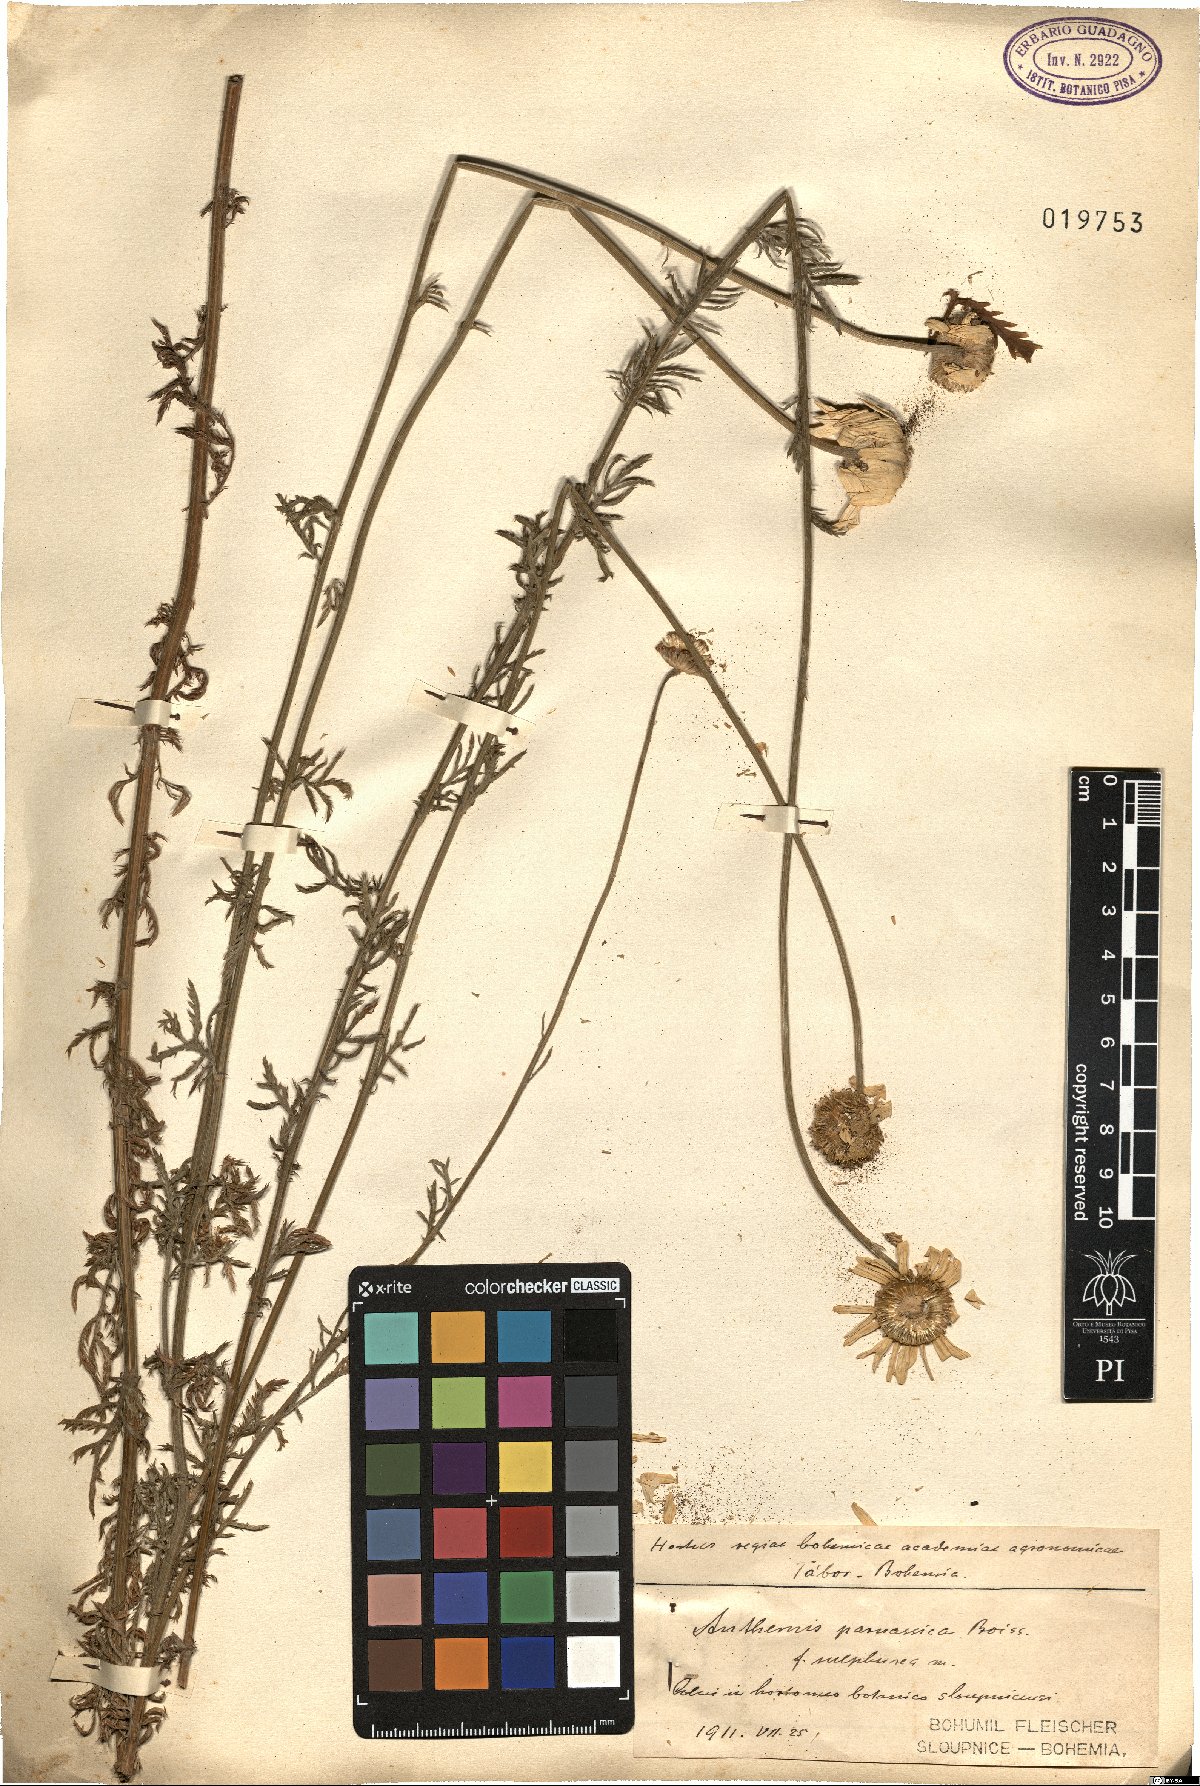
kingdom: Plantae
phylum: Tracheophyta
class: Magnoliopsida
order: Asterales
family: Asteraceae
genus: Cota
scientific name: Cota tinctoria
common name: Golden chamomile
